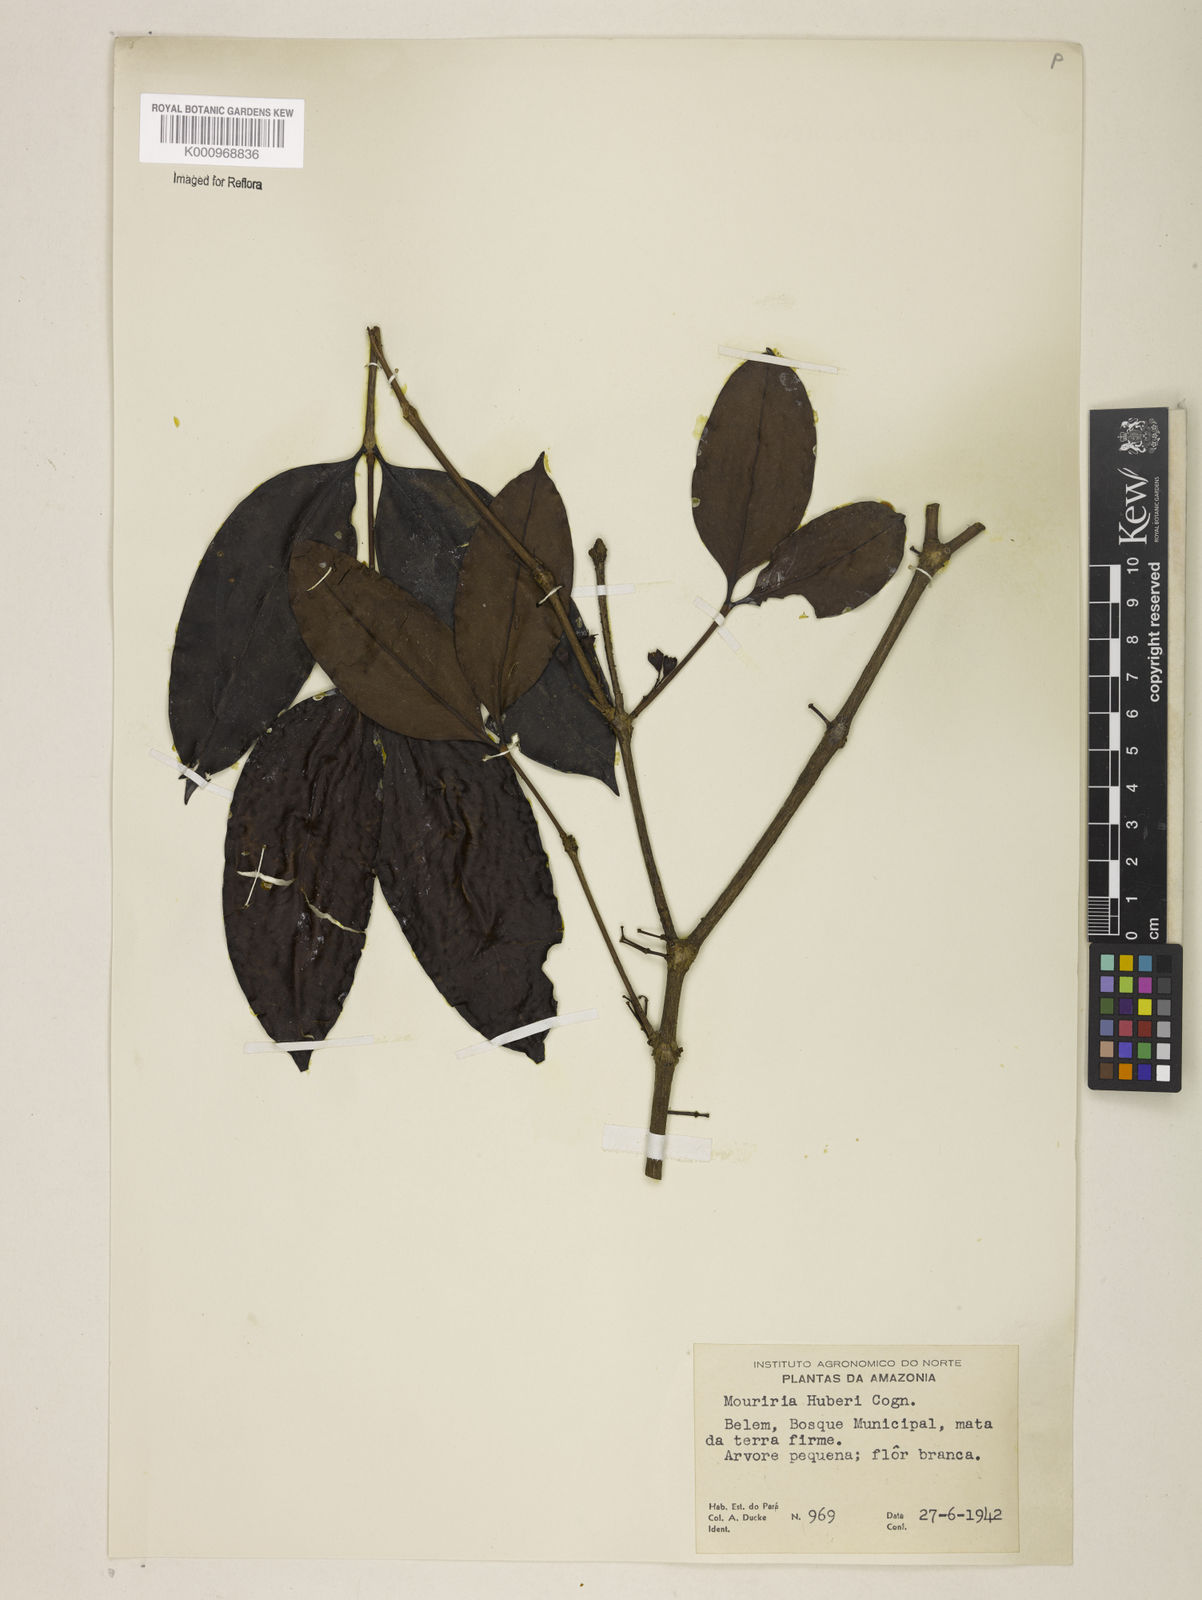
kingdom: Plantae
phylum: Tracheophyta
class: Magnoliopsida
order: Myrtales
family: Melastomataceae
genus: Mouriri
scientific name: Mouriri huberi
